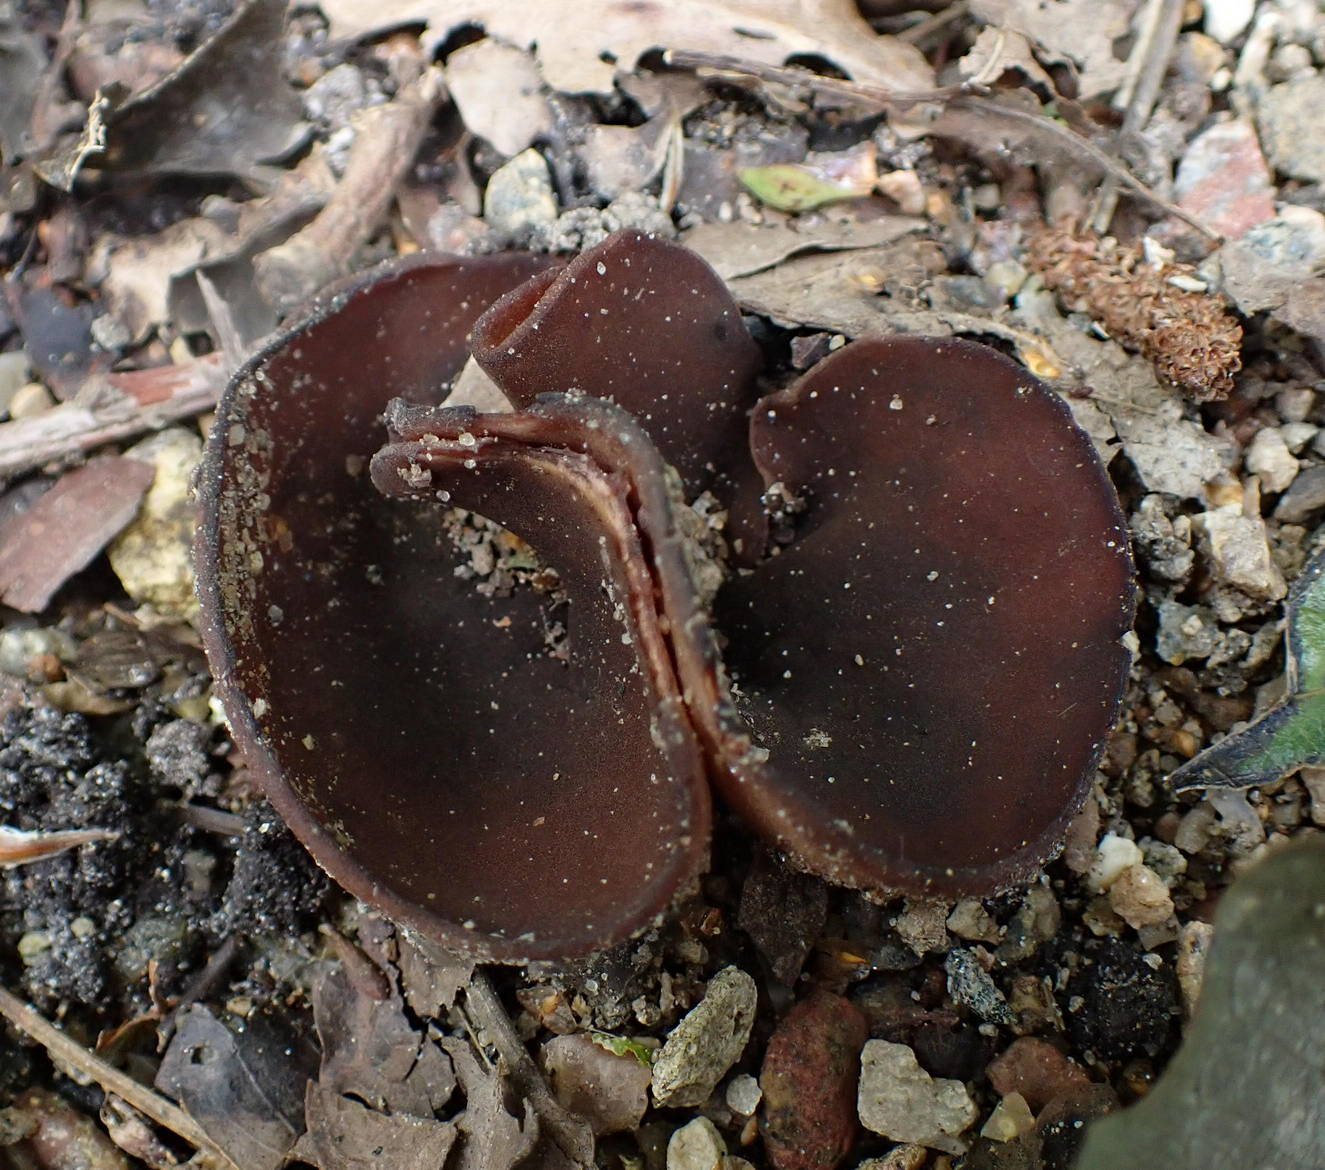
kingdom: Fungi
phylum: Ascomycota
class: Pezizomycetes
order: Pezizales
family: Pezizaceae
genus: Legaliana
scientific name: Legaliana
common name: bægersvamp
